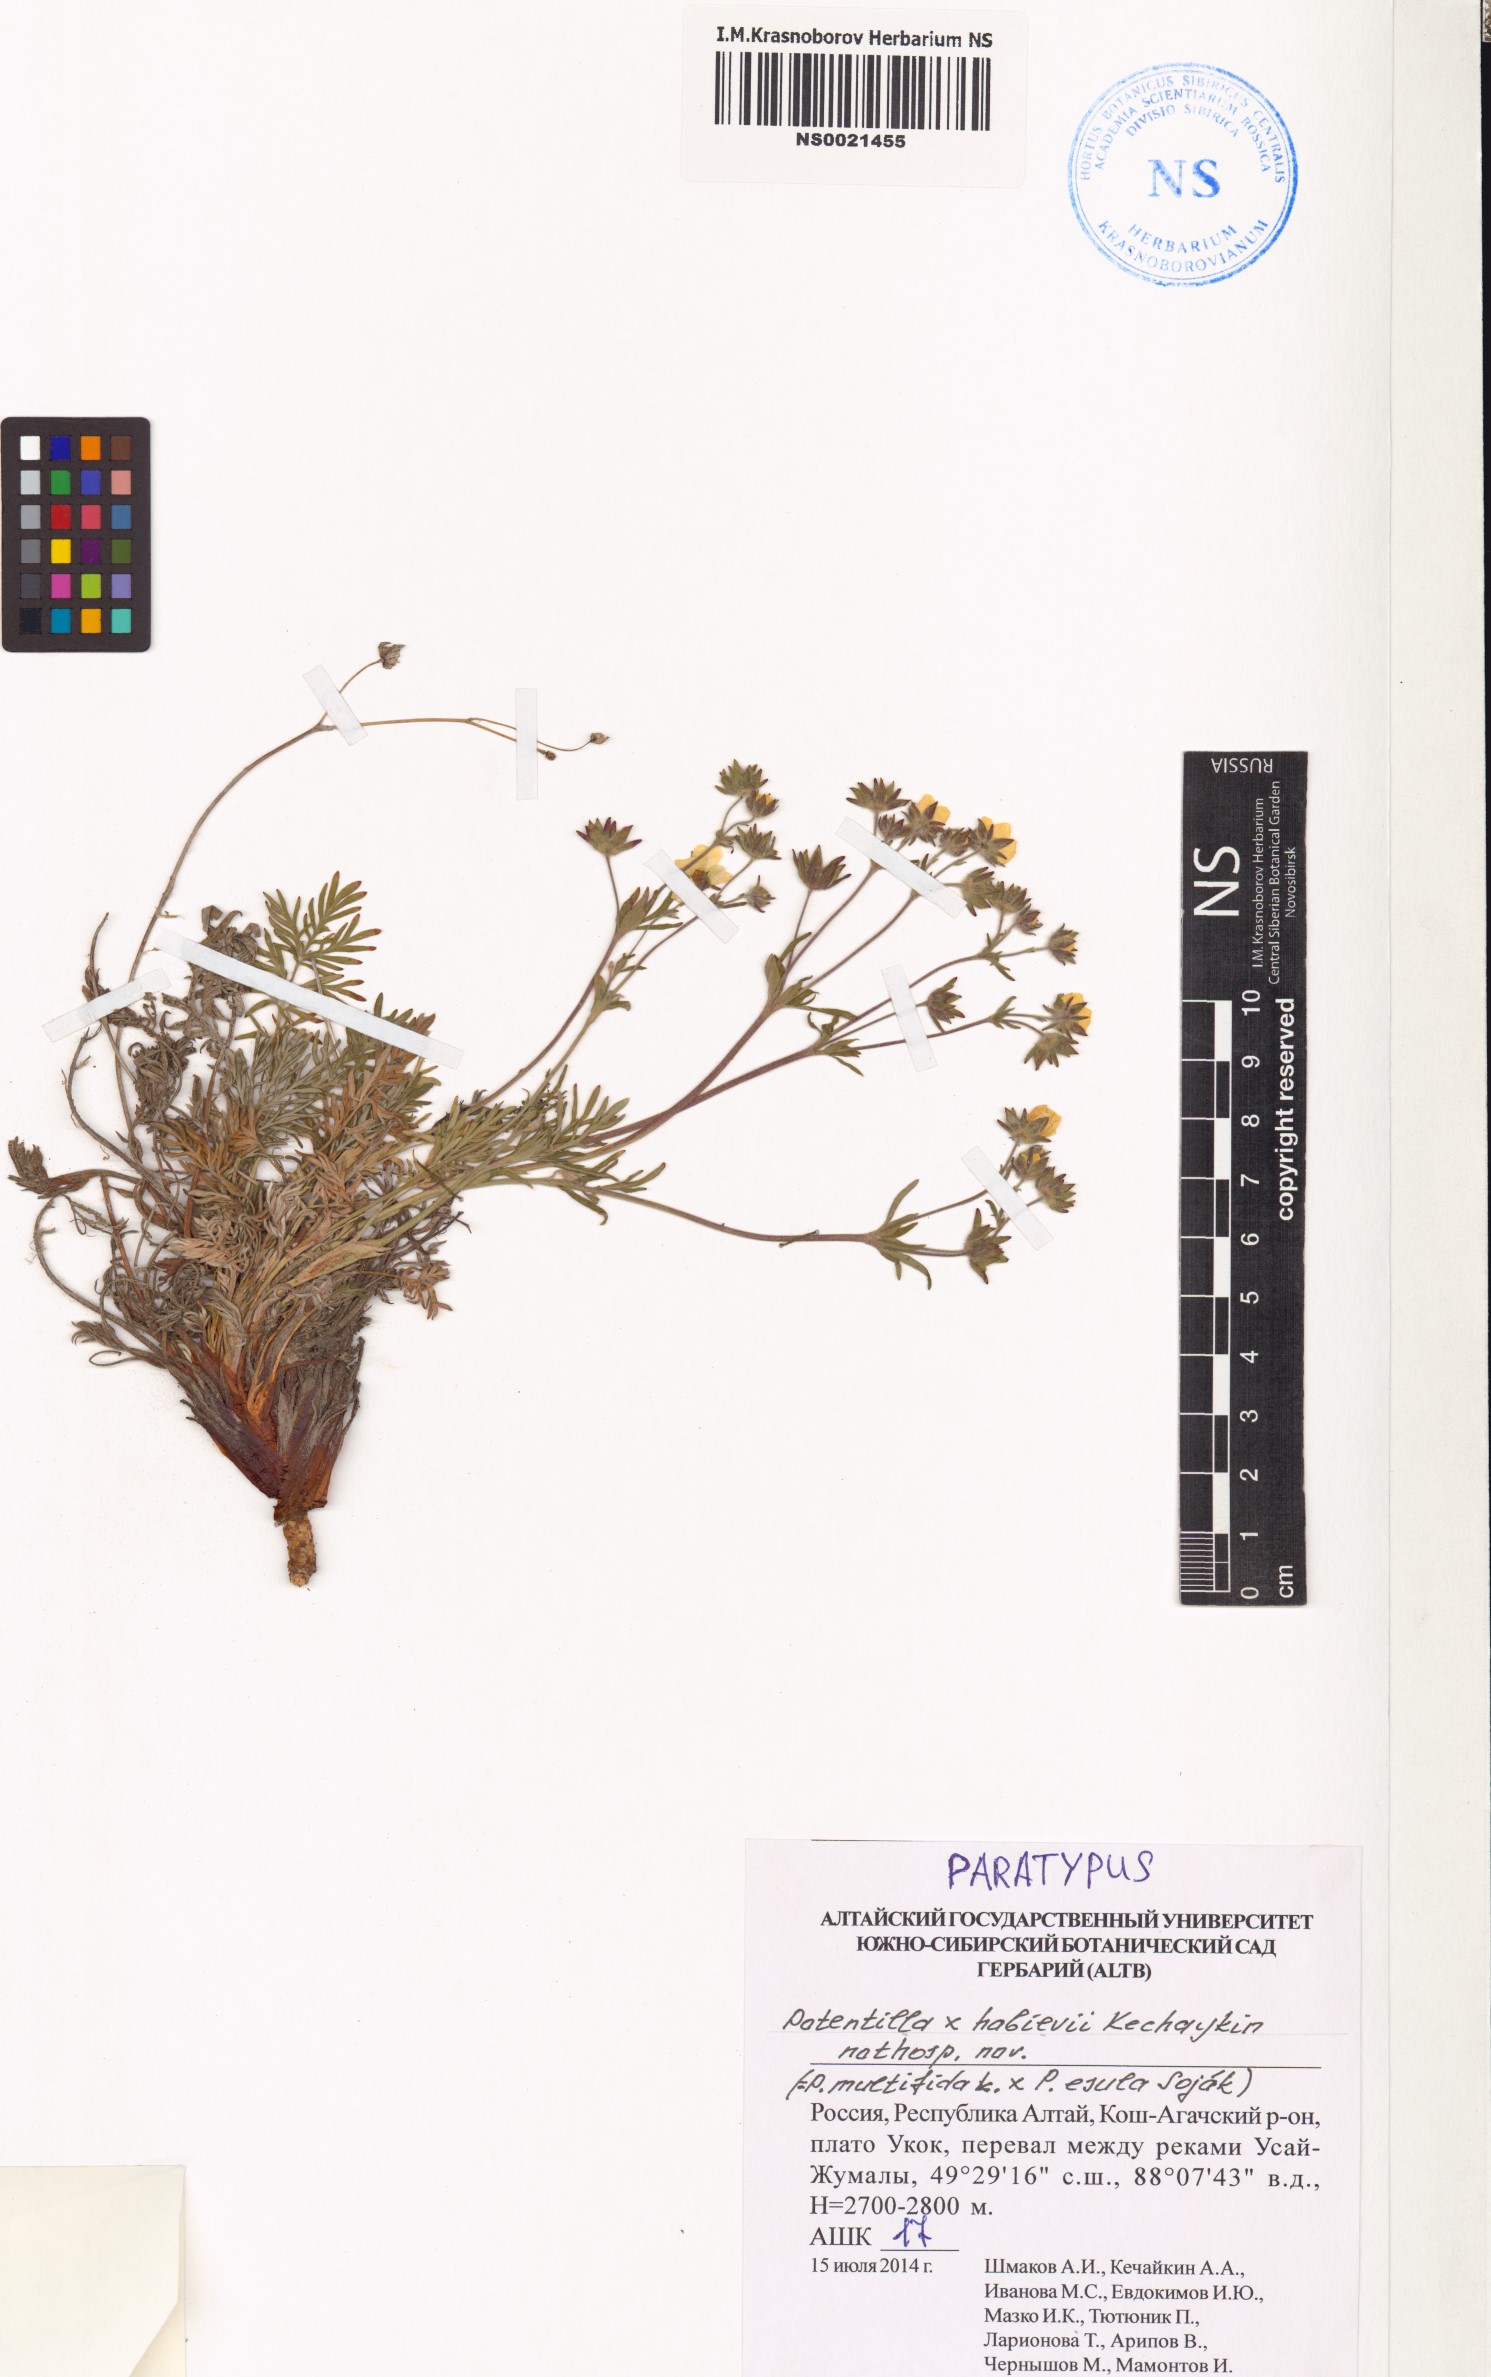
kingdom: Plantae
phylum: Tracheophyta
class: Magnoliopsida
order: Rosales
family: Rosaceae
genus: Potentilla
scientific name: Potentilla habievii
